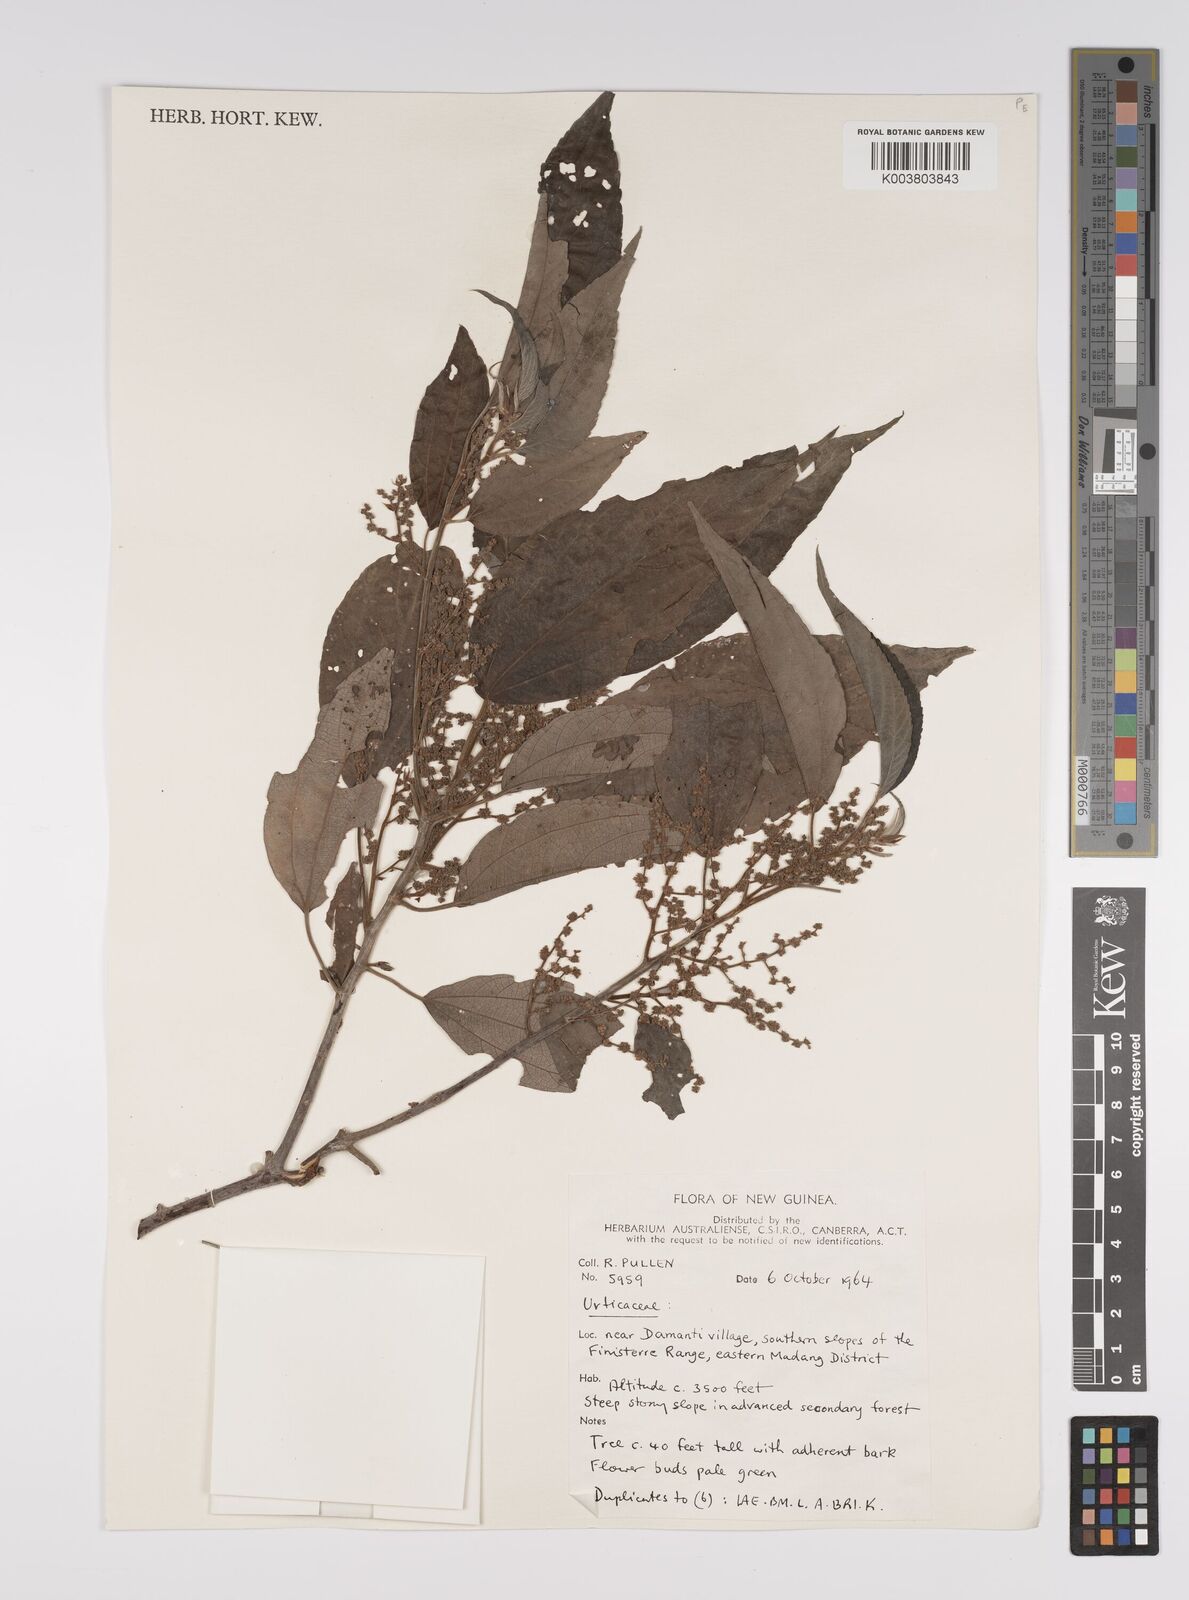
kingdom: Plantae
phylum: Tracheophyta
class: Magnoliopsida
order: Rosales
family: Urticaceae
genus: Pipturus
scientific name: Pipturus argenteus
